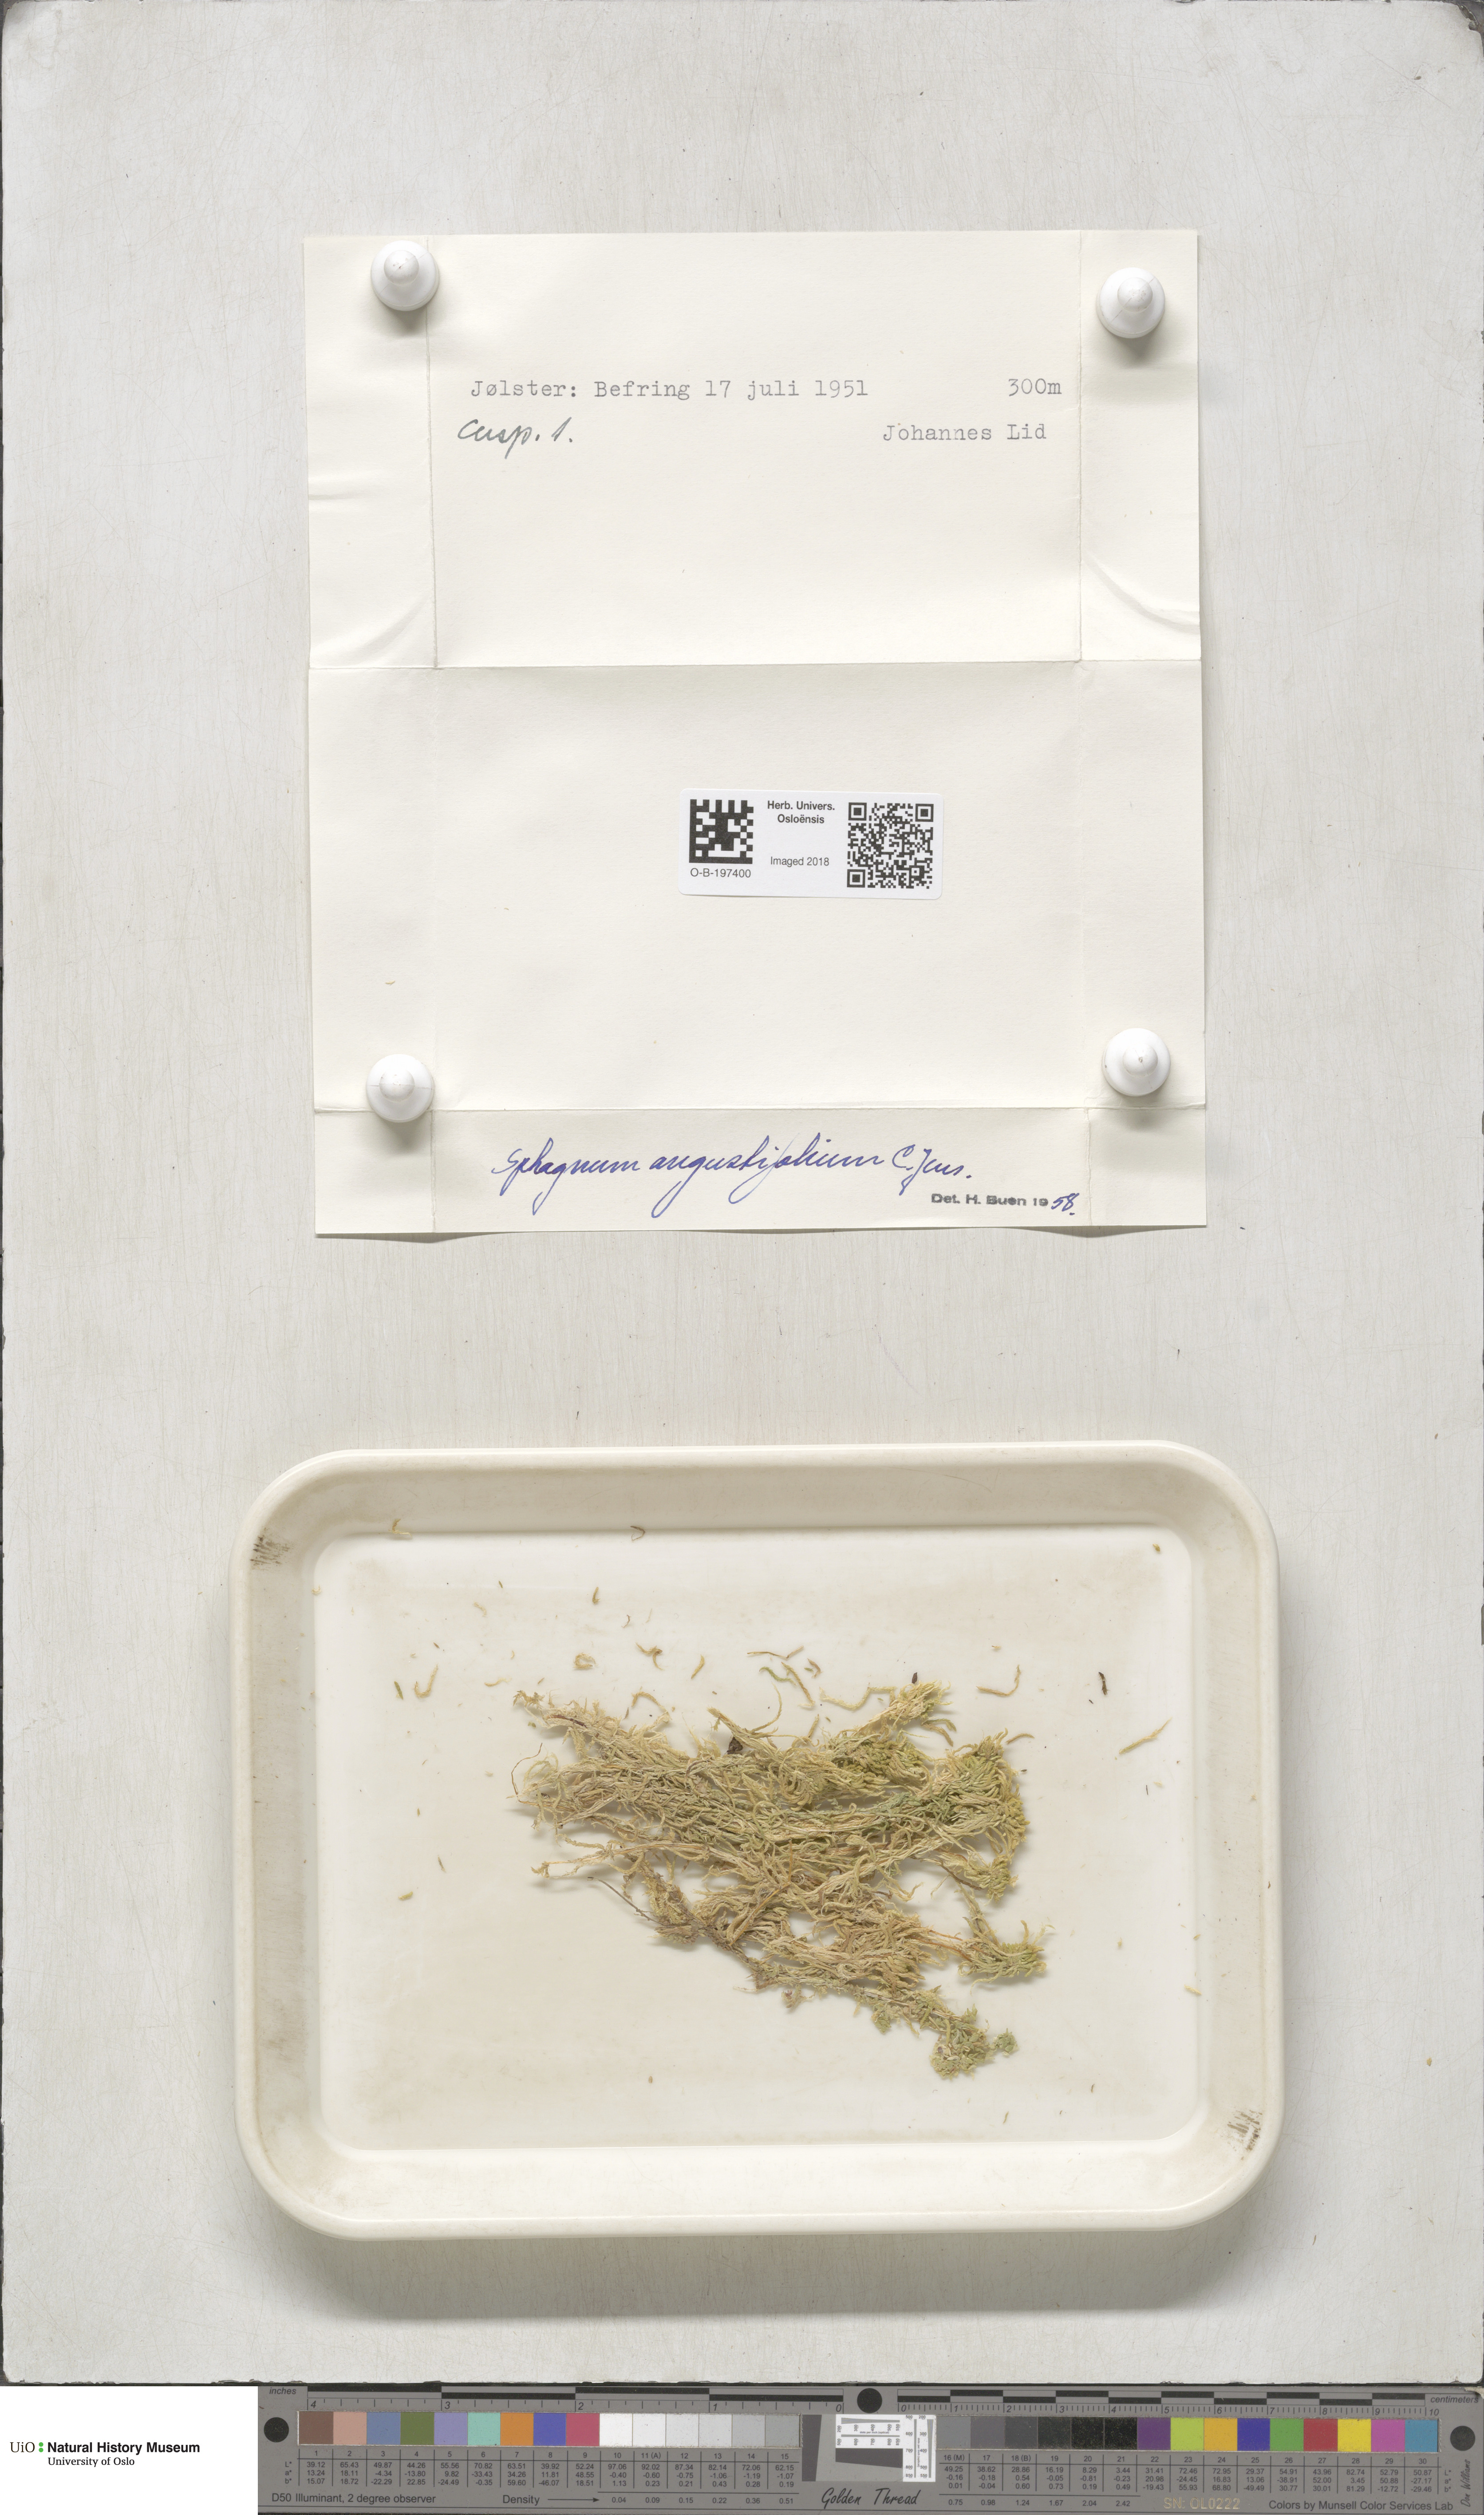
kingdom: Plantae
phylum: Bryophyta
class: Sphagnopsida
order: Sphagnales
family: Sphagnaceae
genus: Sphagnum
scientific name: Sphagnum angustifolium
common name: Narrow-leaved peat moss
